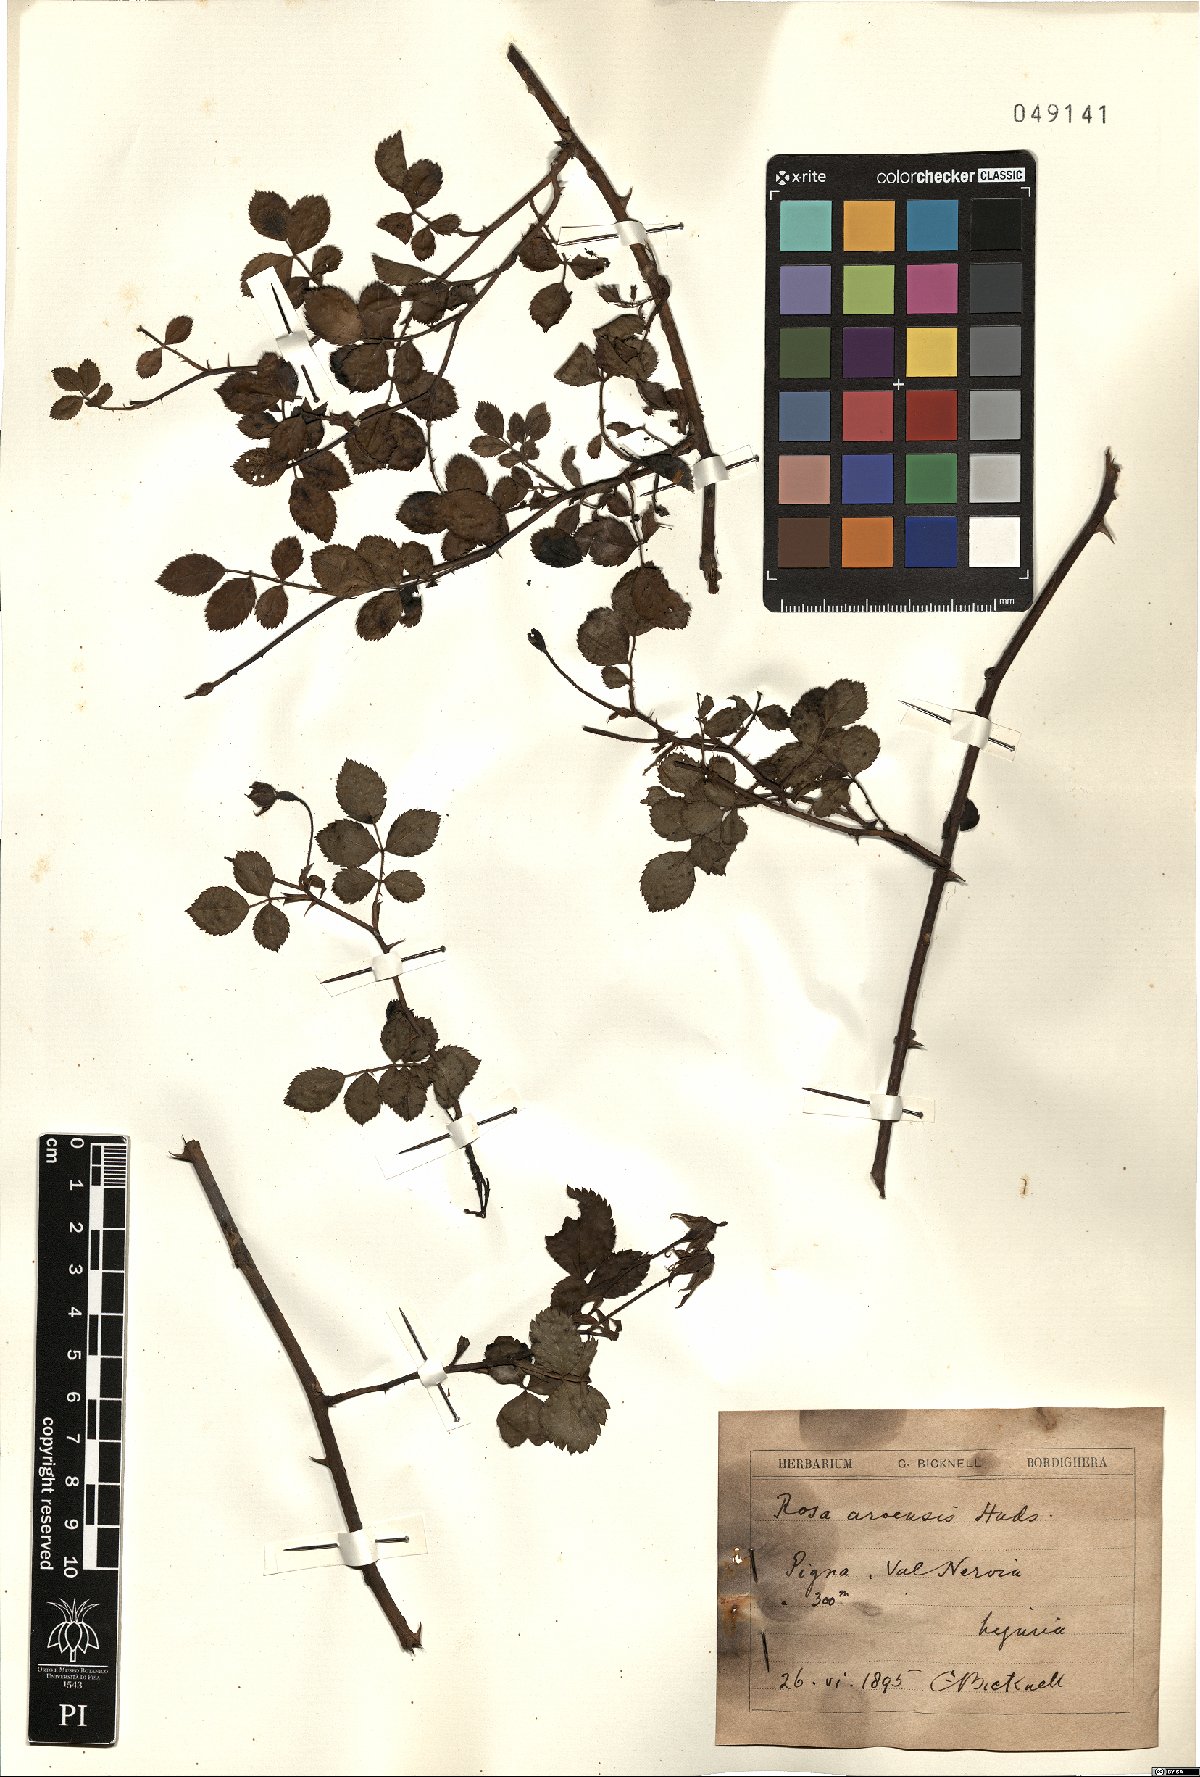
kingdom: Plantae
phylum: Tracheophyta
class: Magnoliopsida
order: Rosales
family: Rosaceae
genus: Rosa
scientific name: Rosa arvensis
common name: Field rose
